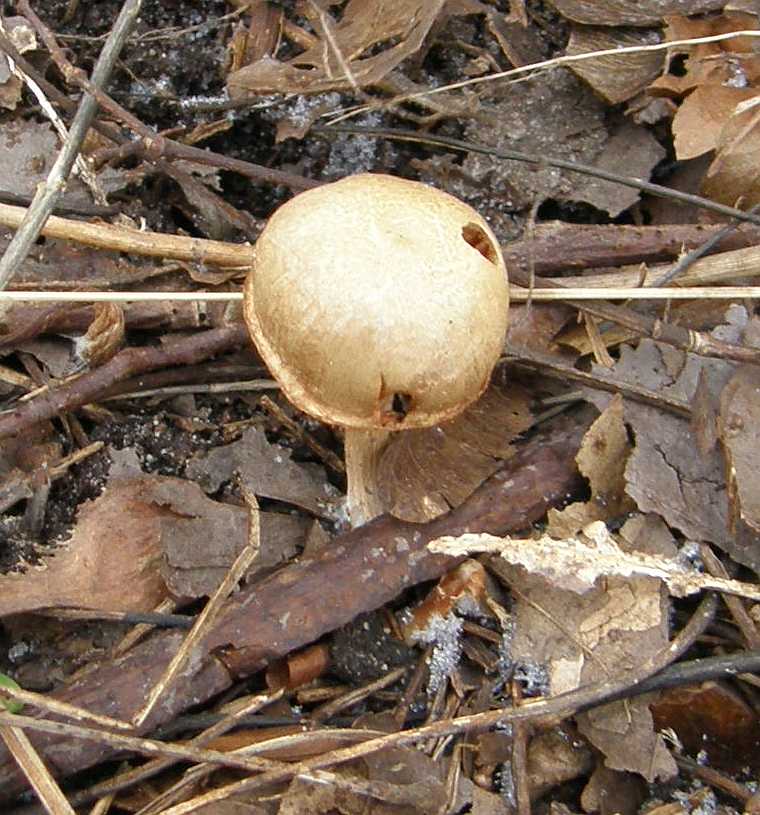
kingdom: Fungi
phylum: Basidiomycota
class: Agaricomycetes
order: Agaricales
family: Tubariaceae
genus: Tubaria
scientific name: Tubaria furfuracea
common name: kliddet fnughat
